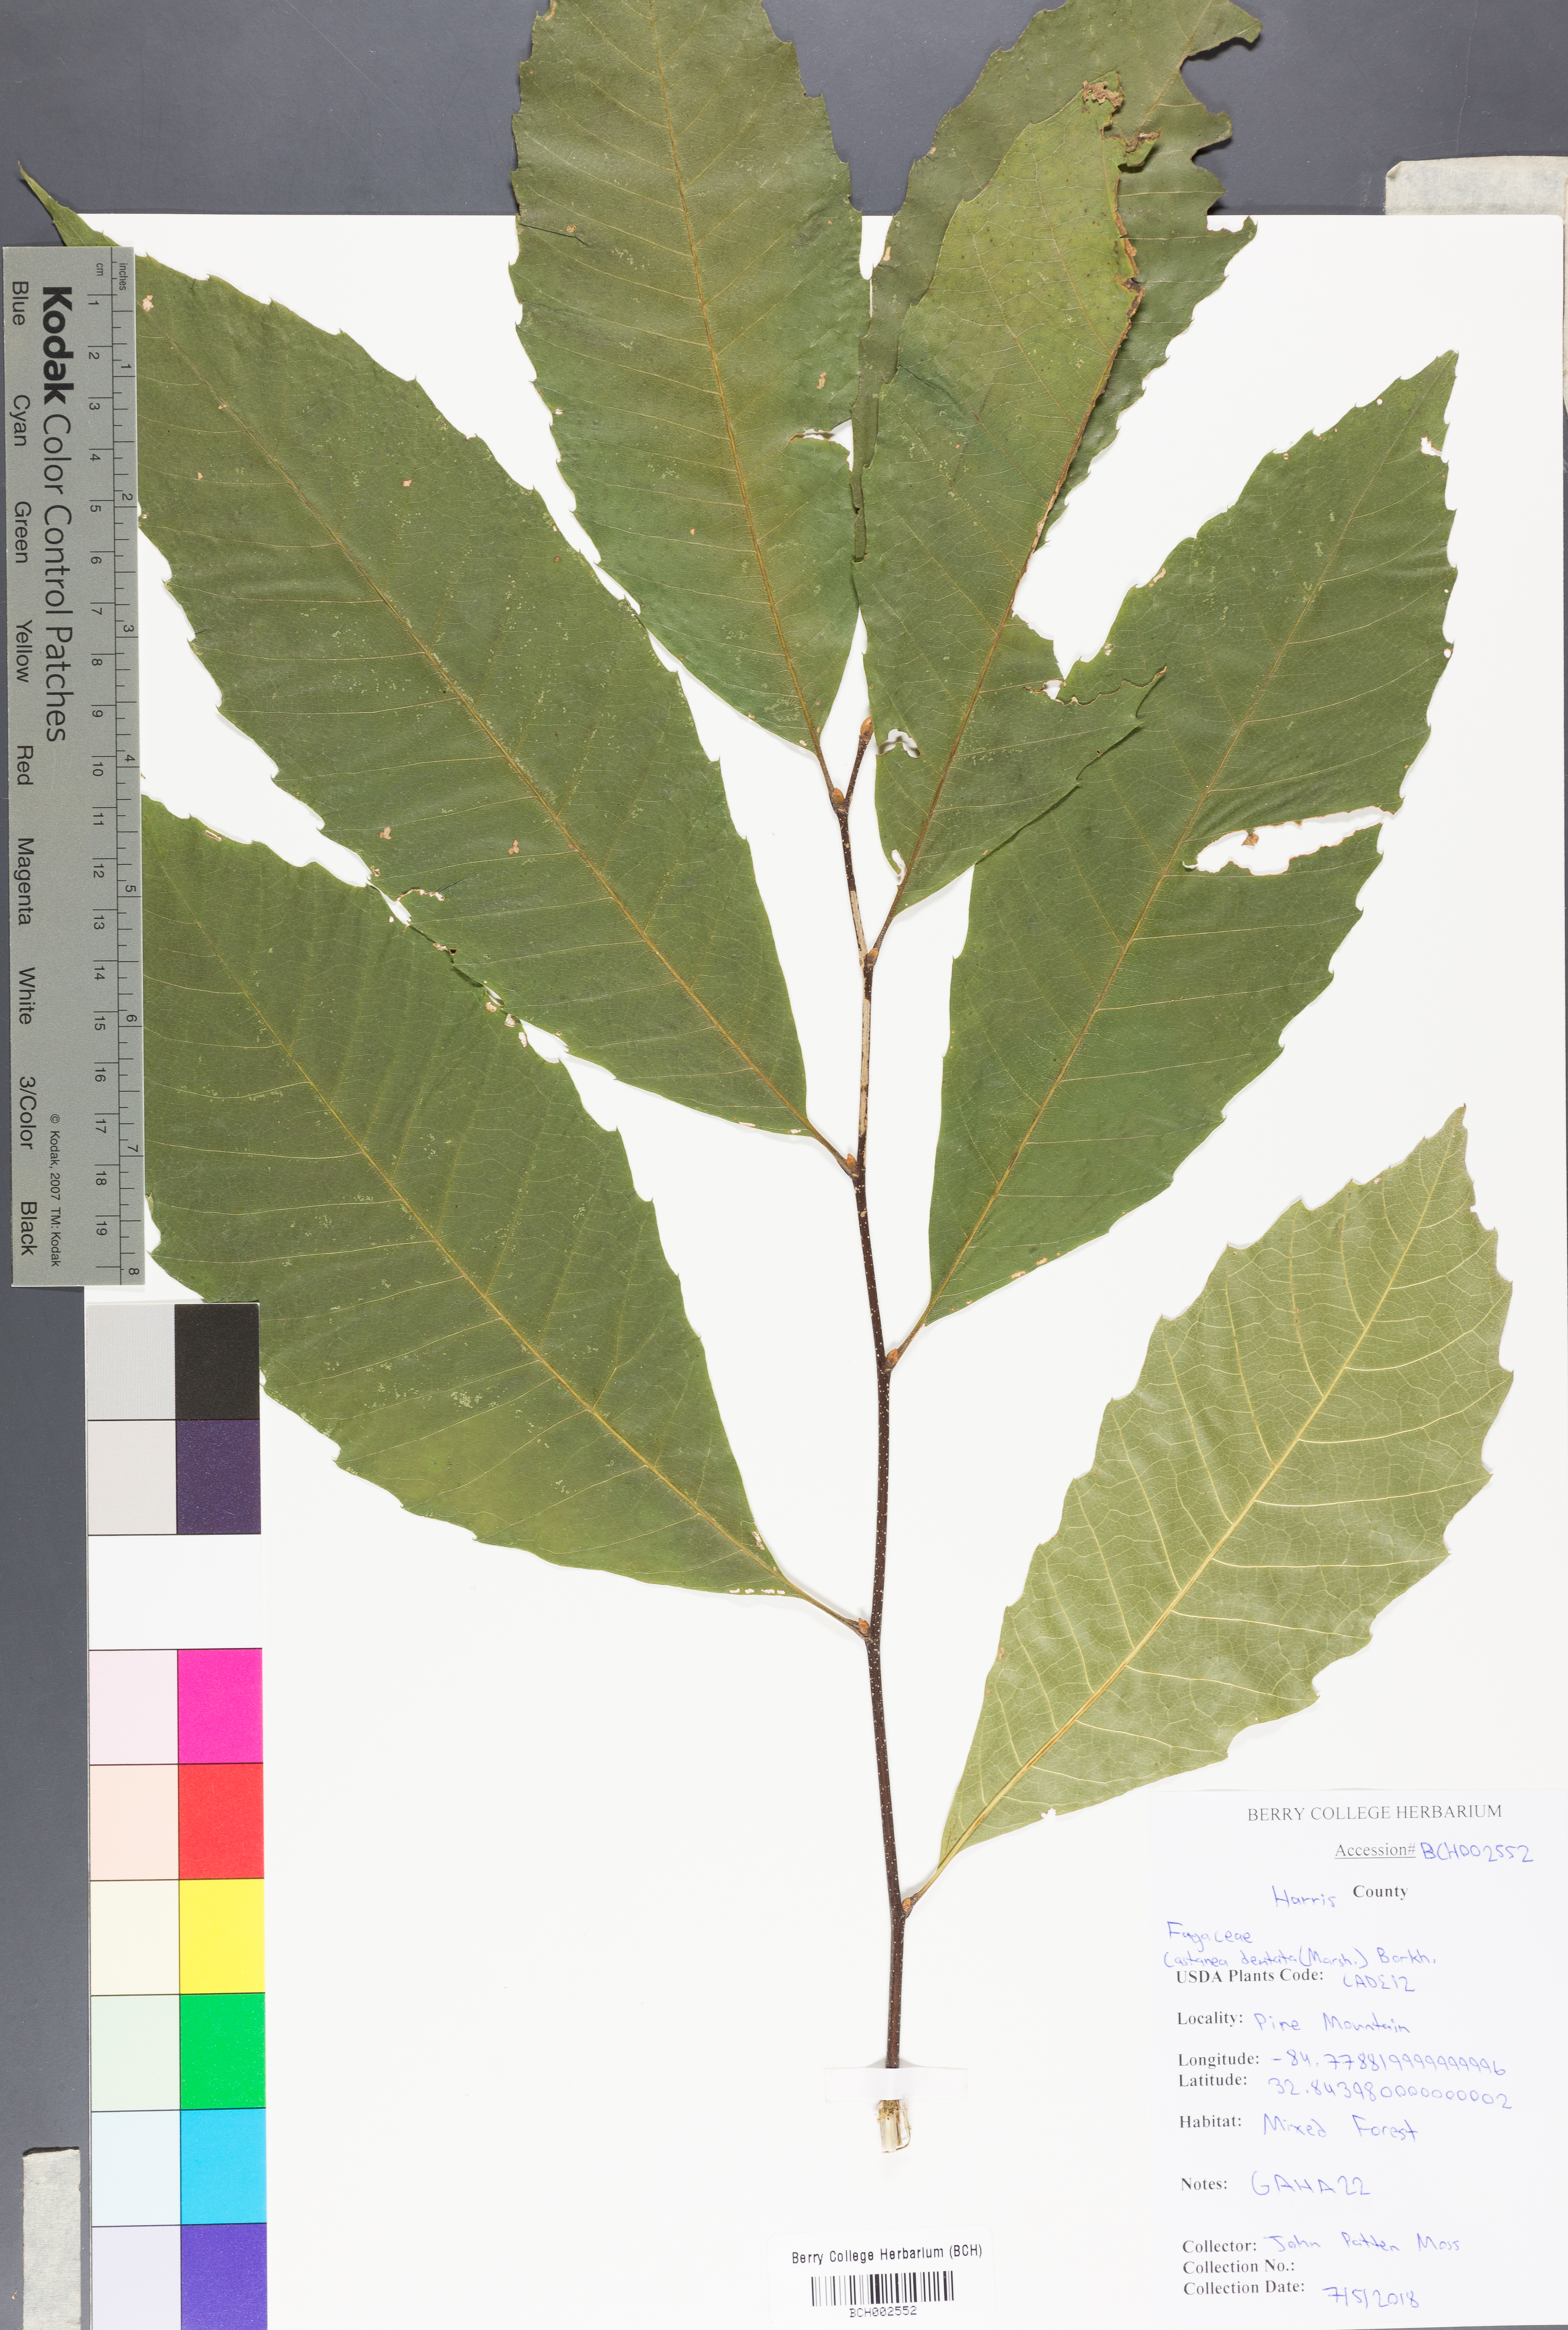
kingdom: Plantae
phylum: Tracheophyta
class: Magnoliopsida
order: Fagales
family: Fagaceae
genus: Castanea
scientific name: Castanea dentata
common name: American chestnut
